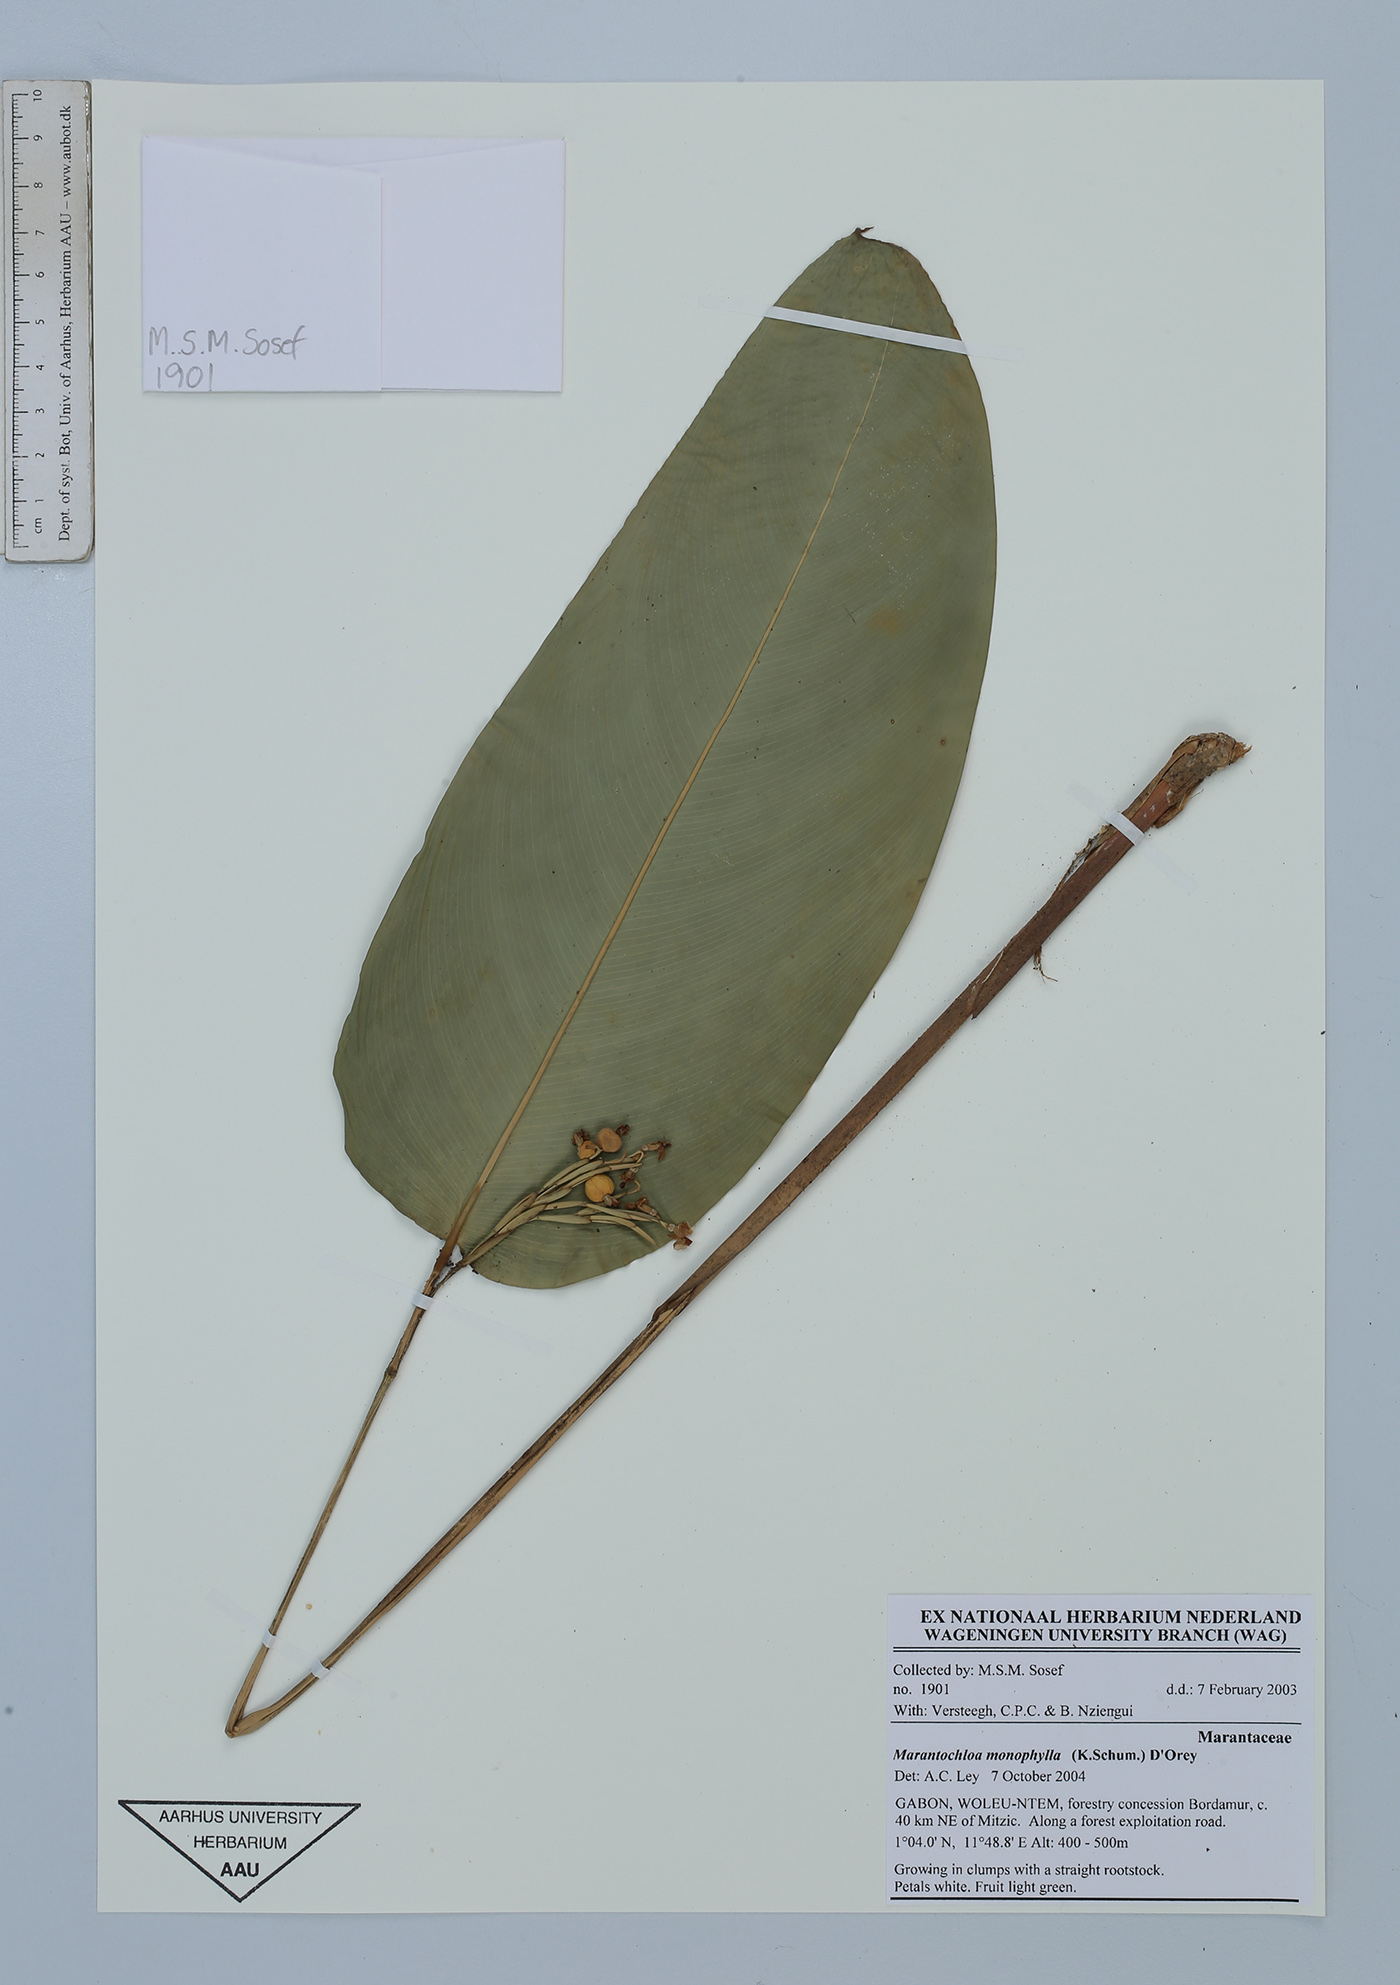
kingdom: Plantae
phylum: Tracheophyta
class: Liliopsida
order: Zingiberales
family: Marantaceae
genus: Marantochloa
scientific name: Marantochloa monophylla
